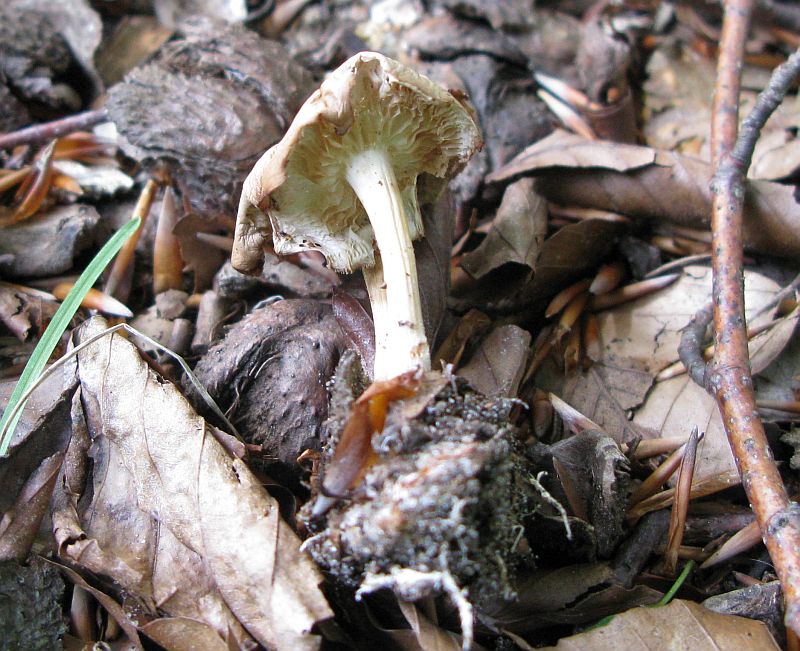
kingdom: Fungi
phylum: Basidiomycota
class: Agaricomycetes
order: Agaricales
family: Omphalotaceae
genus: Gymnopus
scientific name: Gymnopus aquosus
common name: bleg fladhat
